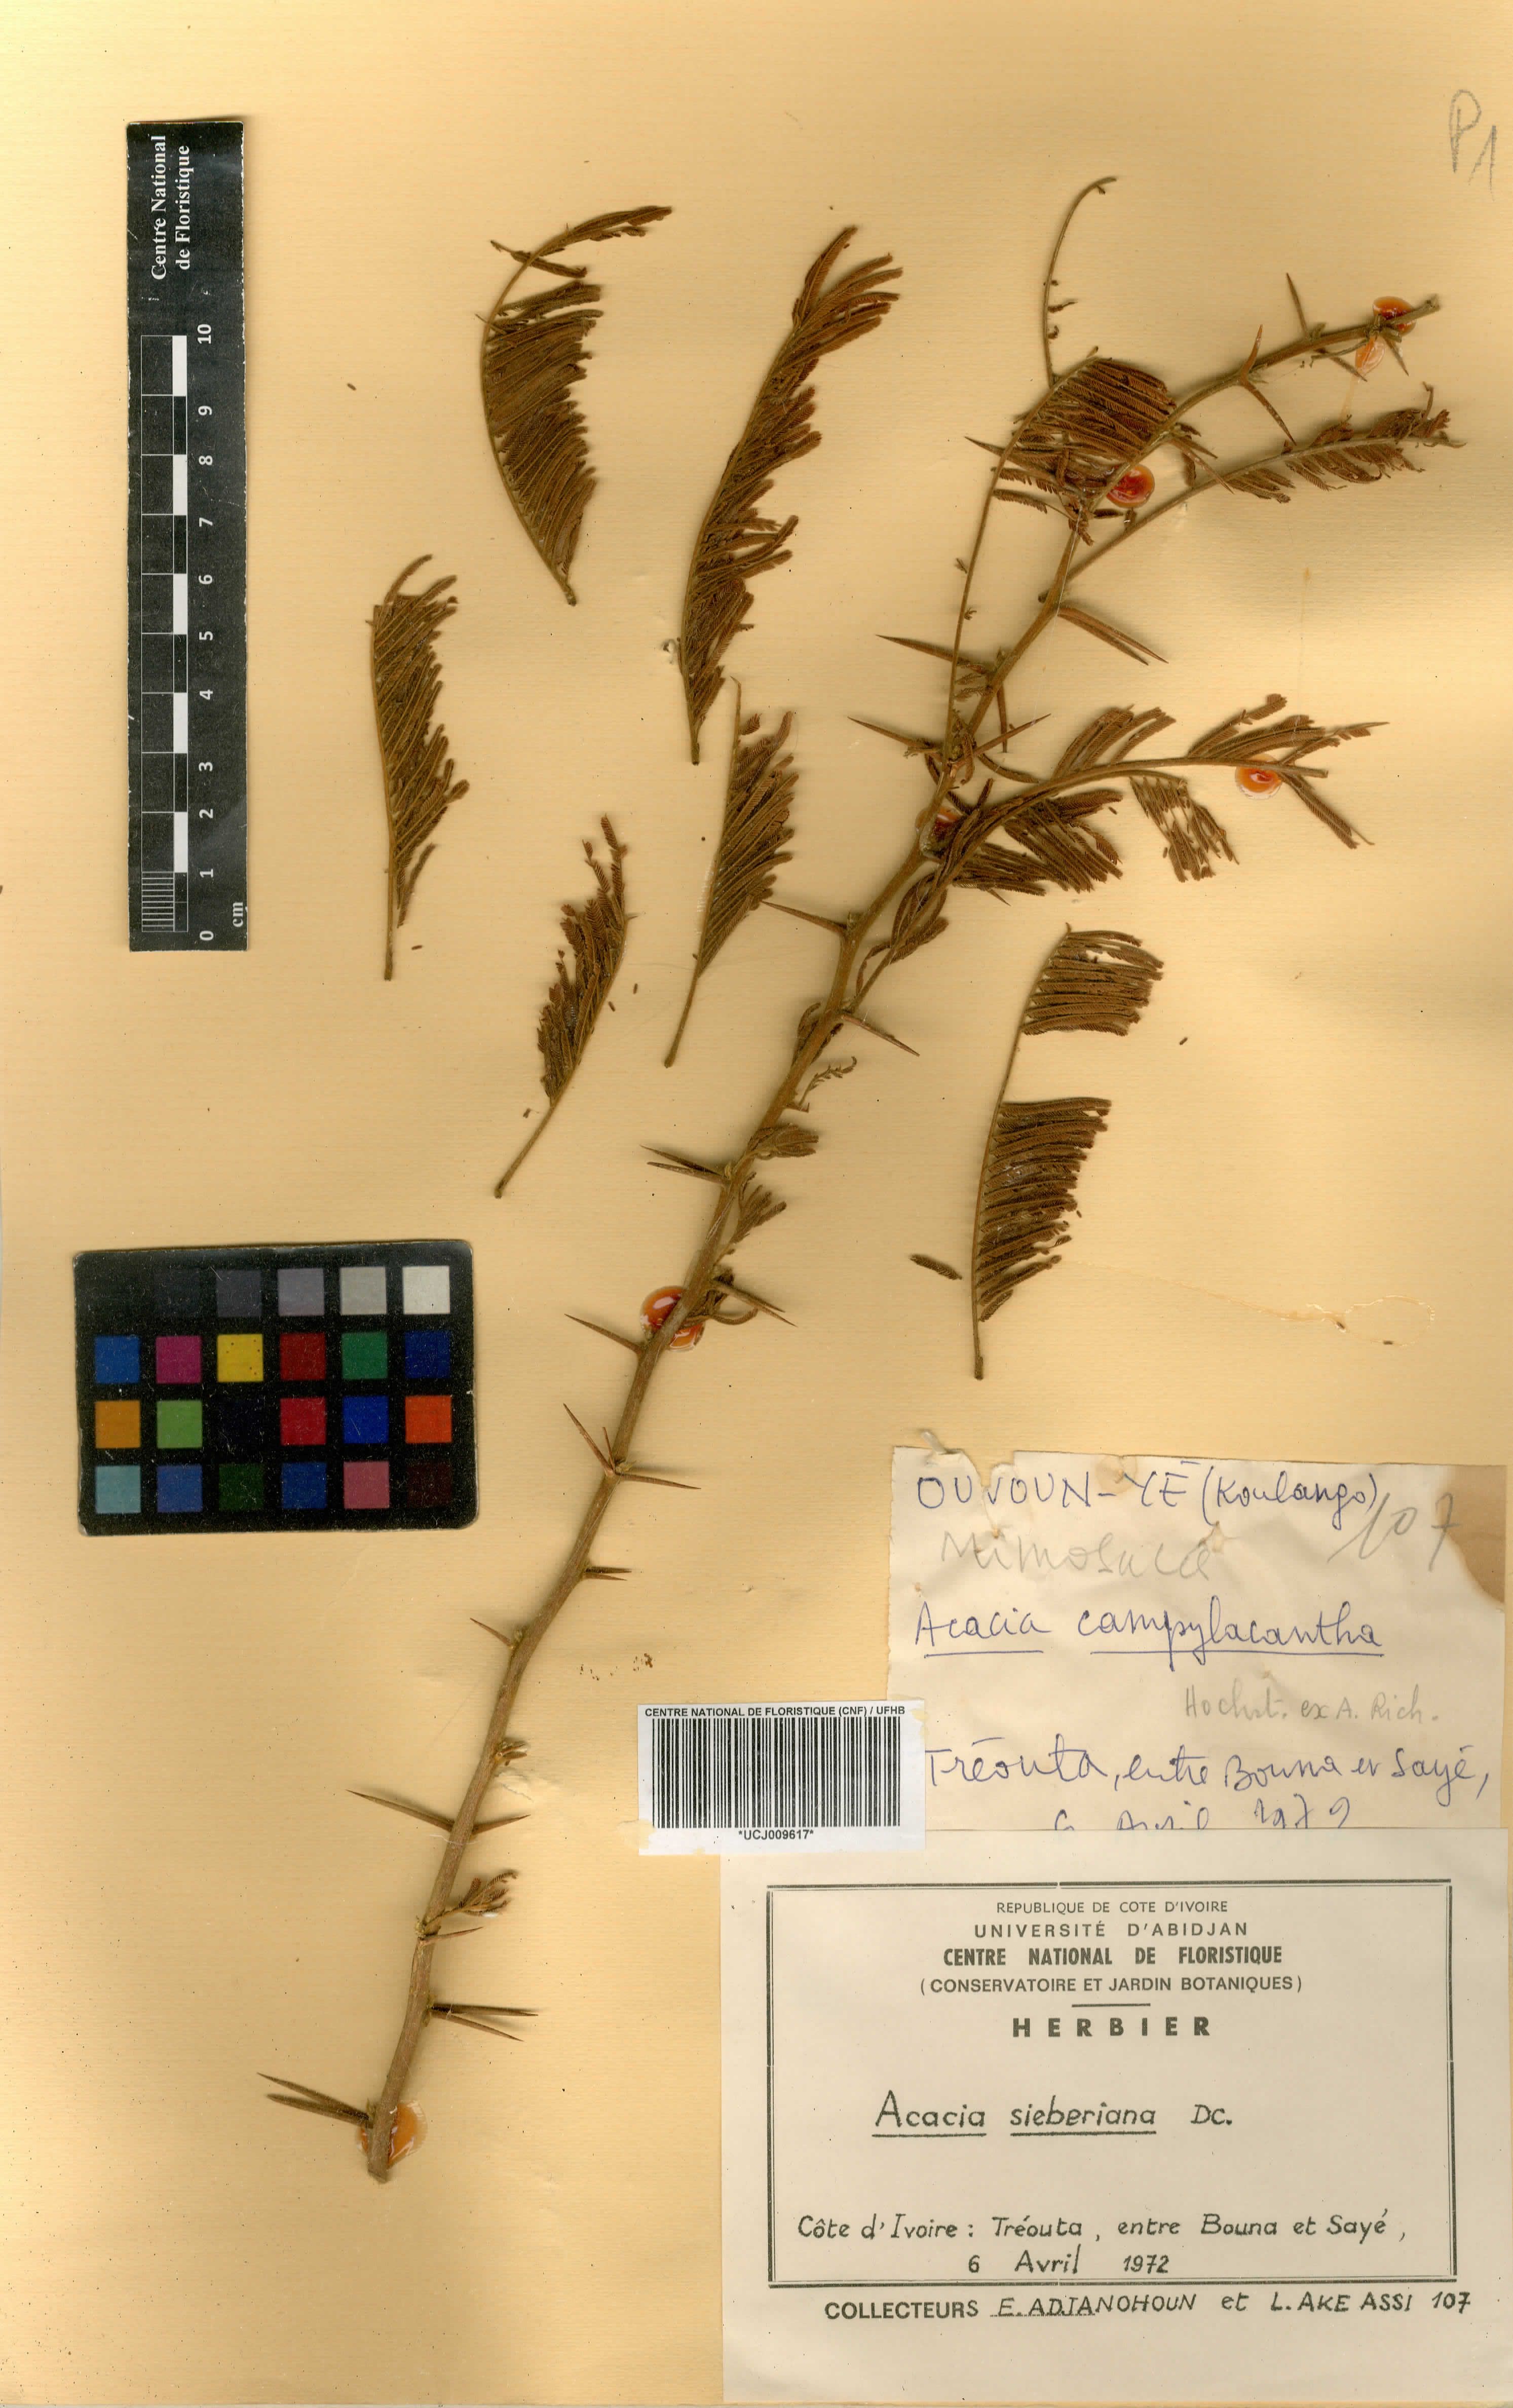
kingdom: Plantae
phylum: Tracheophyta
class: Magnoliopsida
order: Fabales
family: Fabaceae
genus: Vachellia
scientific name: Vachellia sieberiana
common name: Flat-topped thorn
